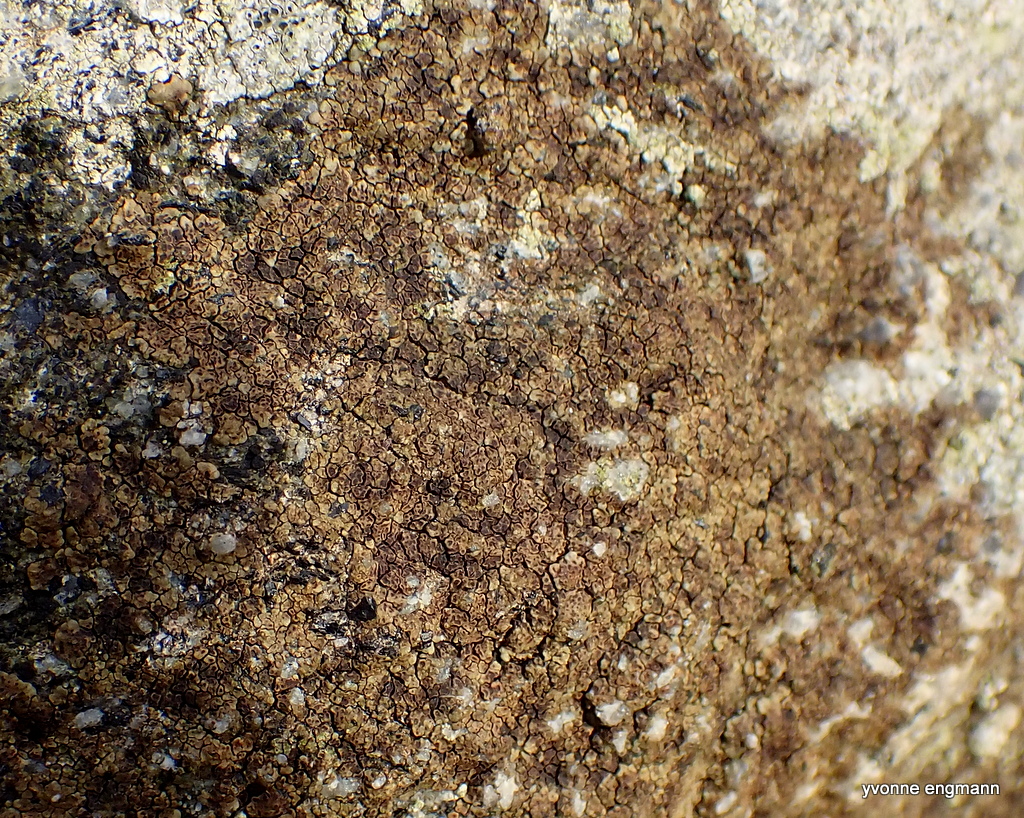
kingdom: Fungi
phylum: Ascomycota
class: Lecanoromycetes
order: Acarosporales
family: Acarosporaceae
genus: Acarospora
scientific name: Acarospora fuscata
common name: brun småsporelav
